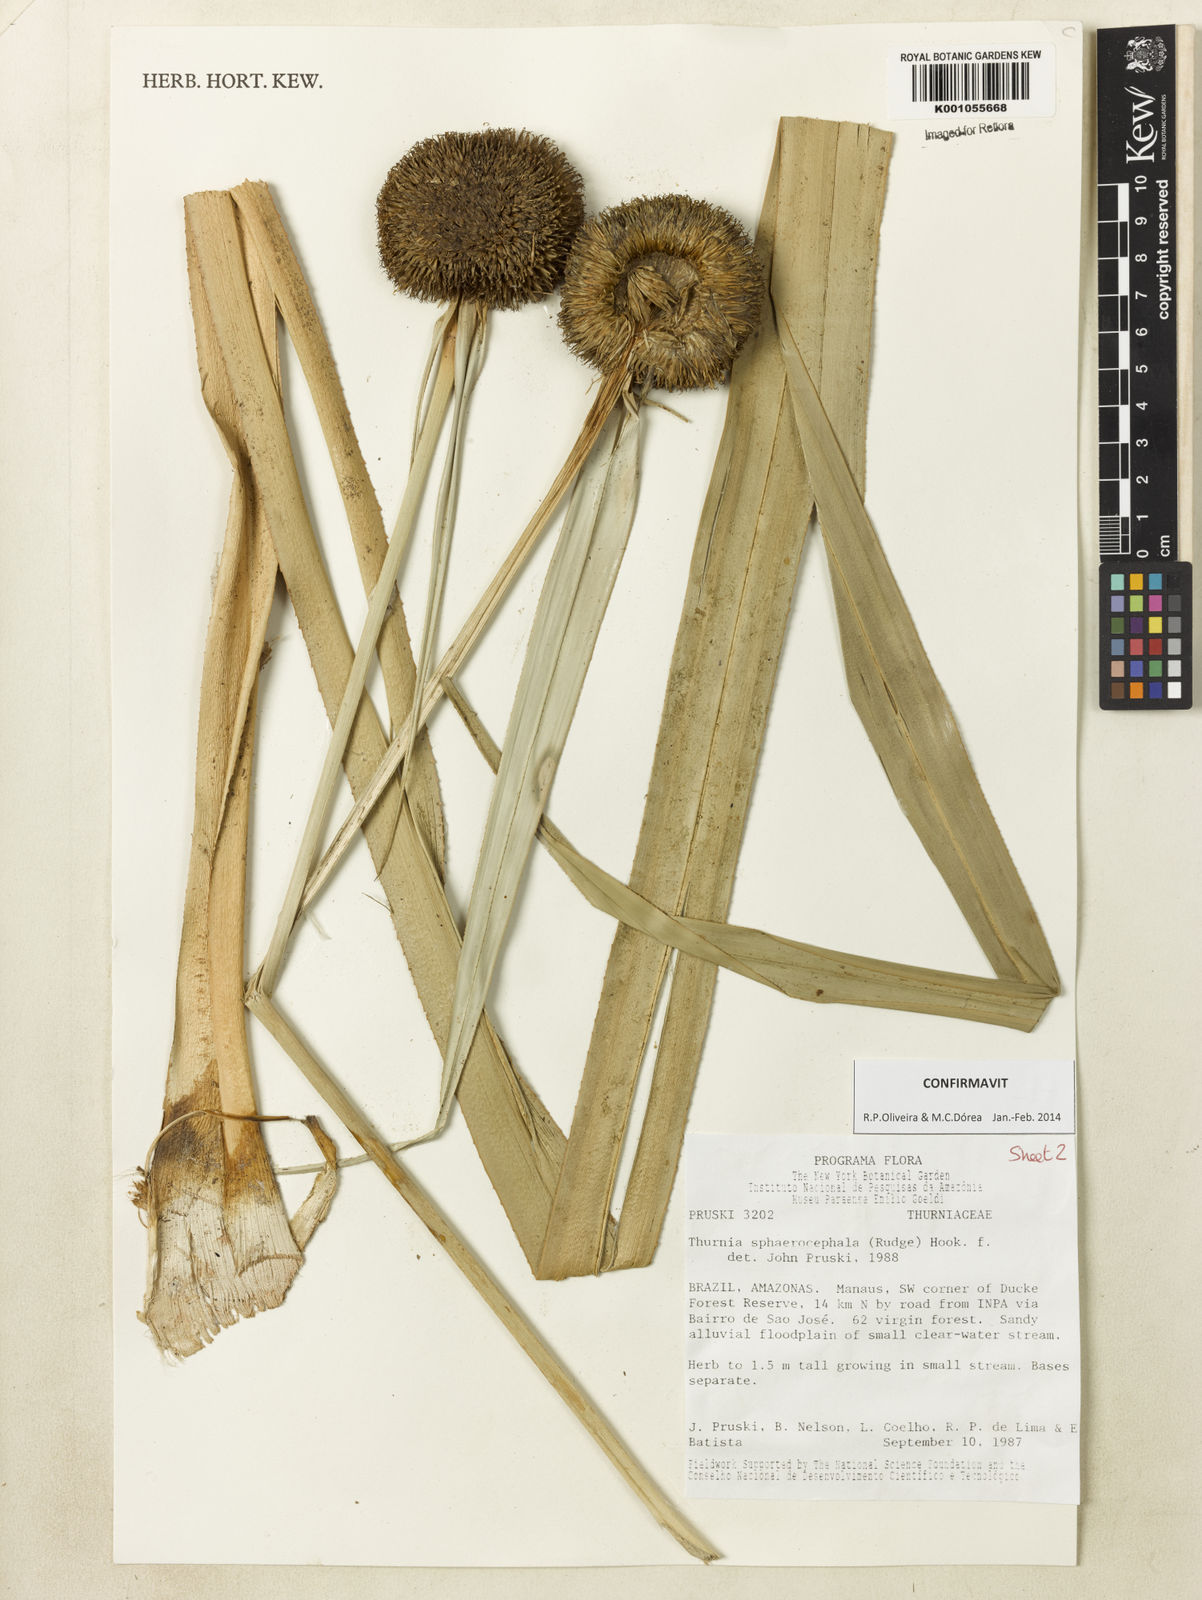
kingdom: Plantae
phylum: Tracheophyta
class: Liliopsida
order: Poales
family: Thurniaceae
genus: Thurnia
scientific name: Thurnia sphaerocephala
